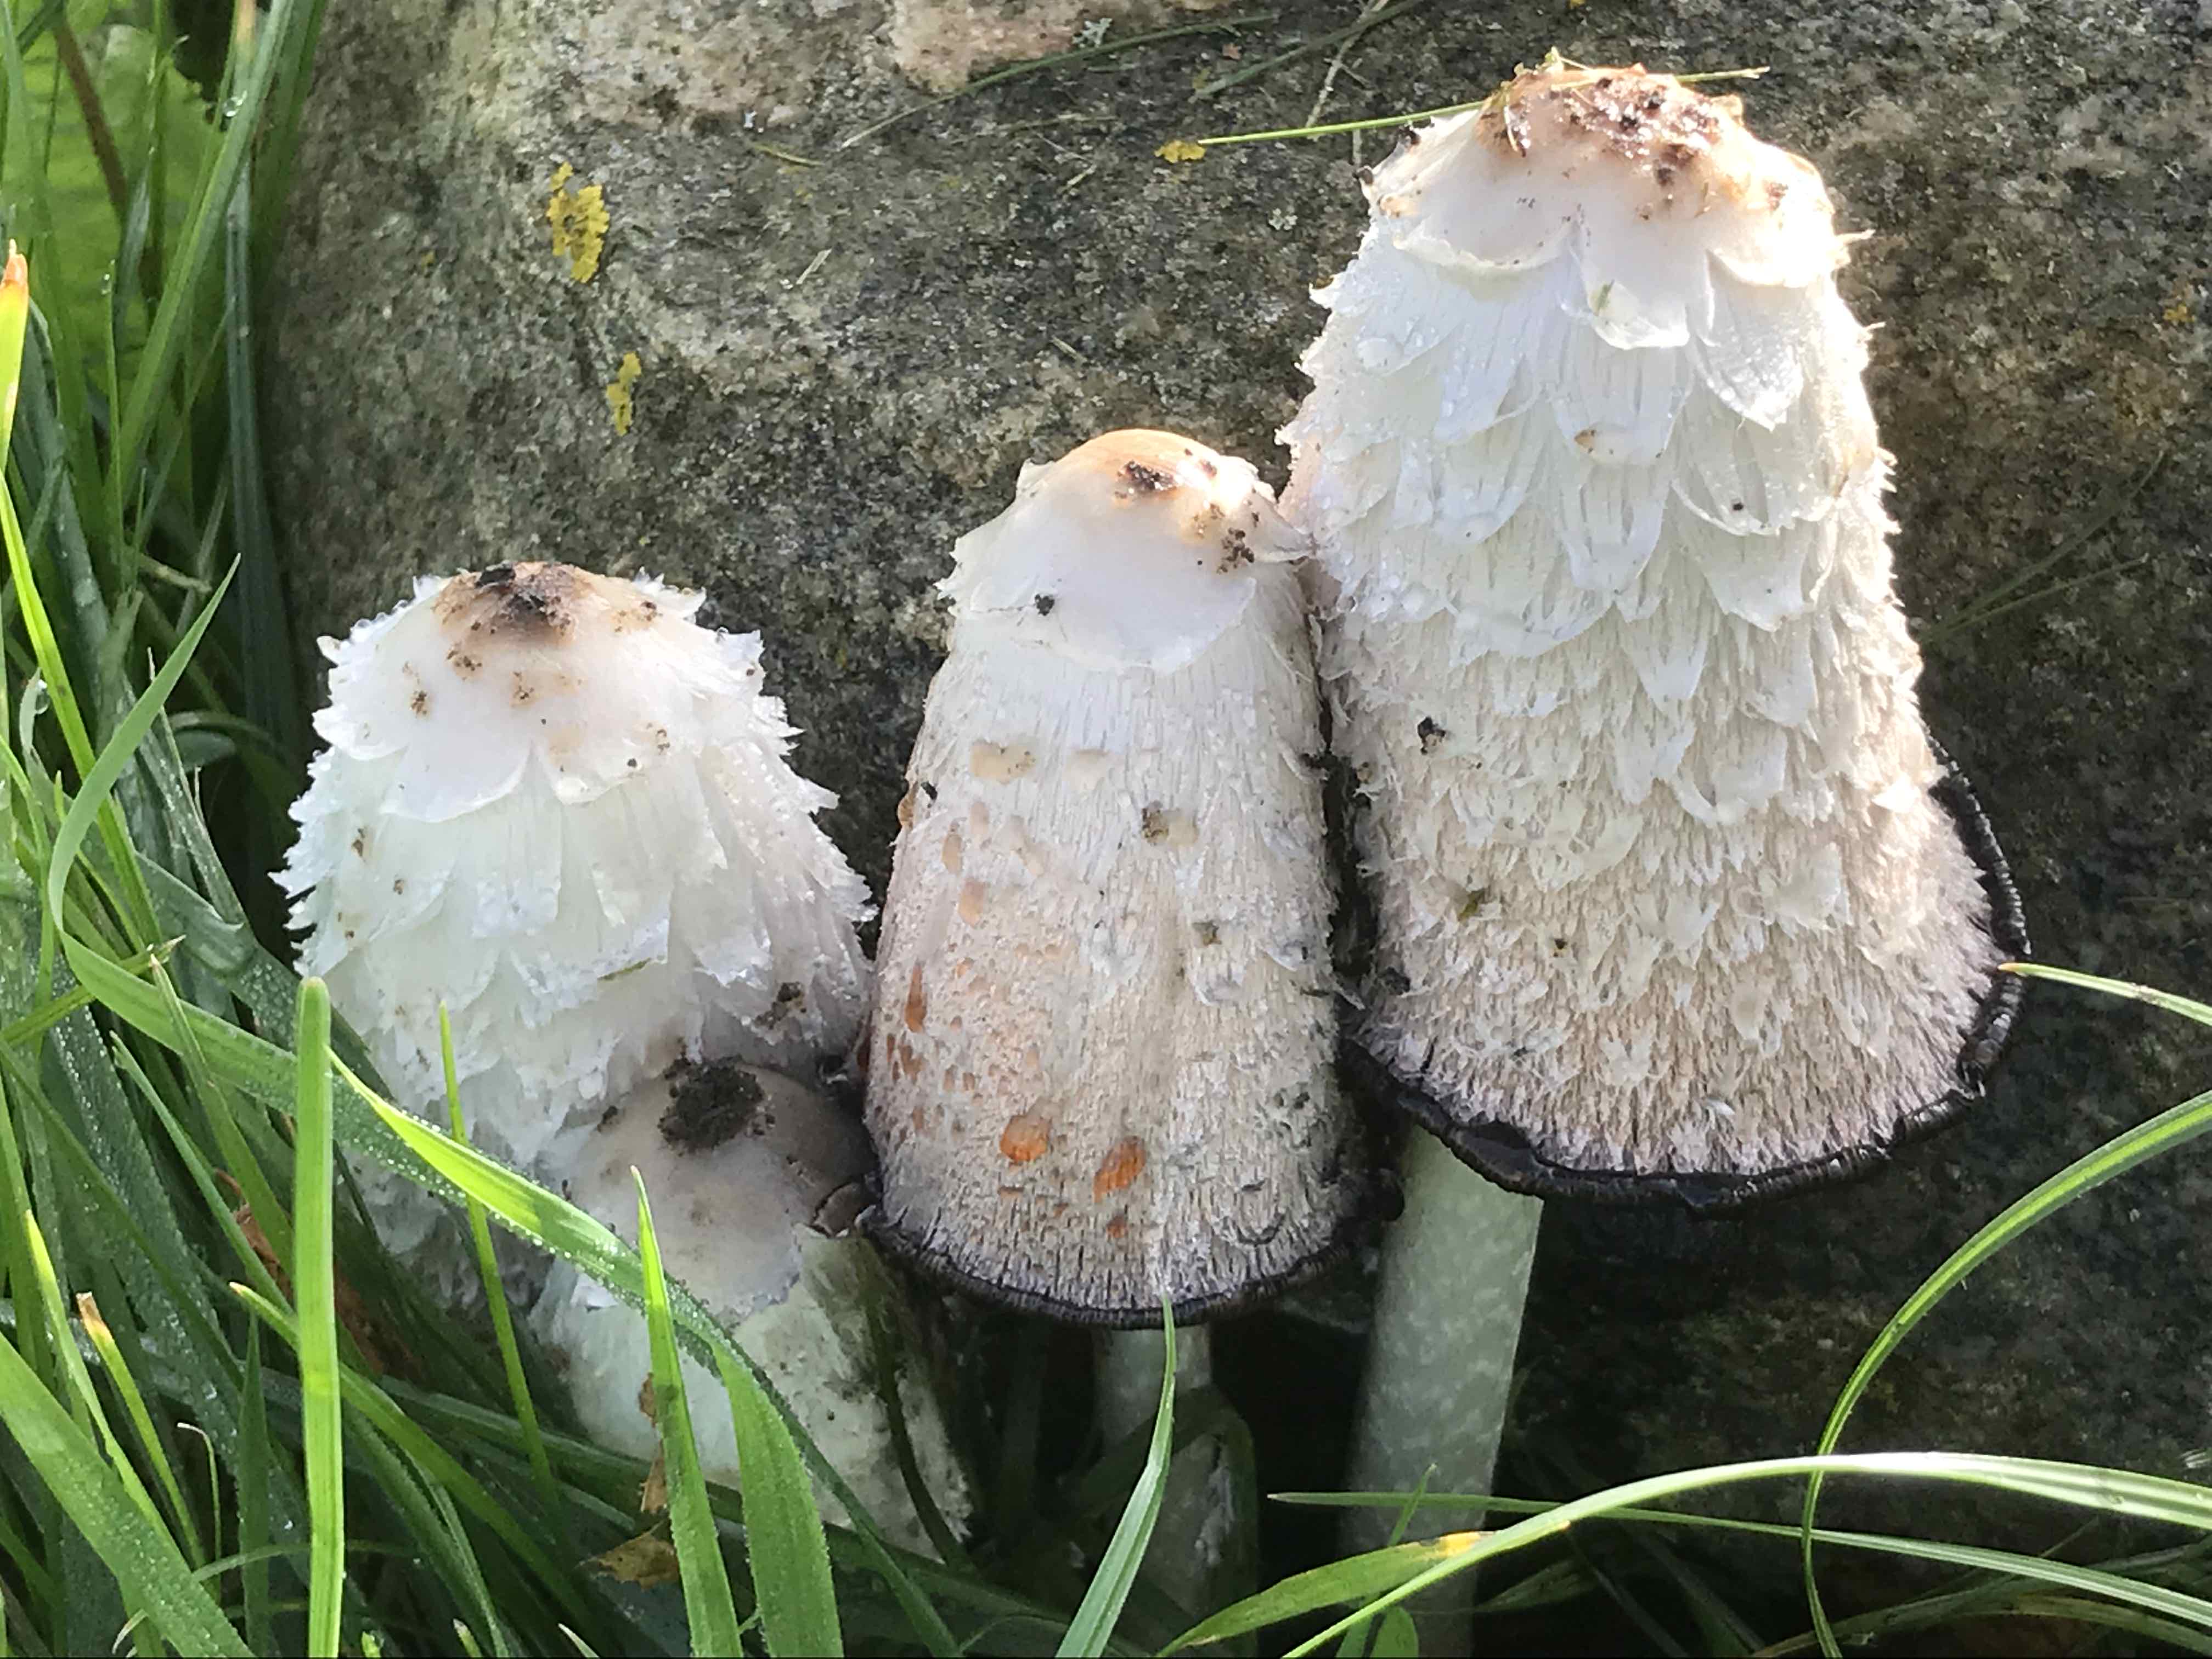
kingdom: Fungi
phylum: Basidiomycota
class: Agaricomycetes
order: Agaricales
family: Agaricaceae
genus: Coprinus
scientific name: Coprinus comatus
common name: stor parykhat
